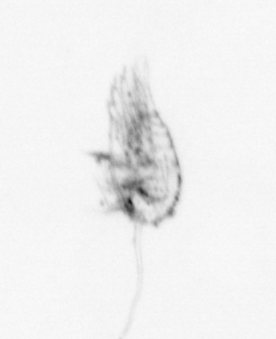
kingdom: Animalia
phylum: Arthropoda
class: Maxillopoda
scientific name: Maxillopoda
